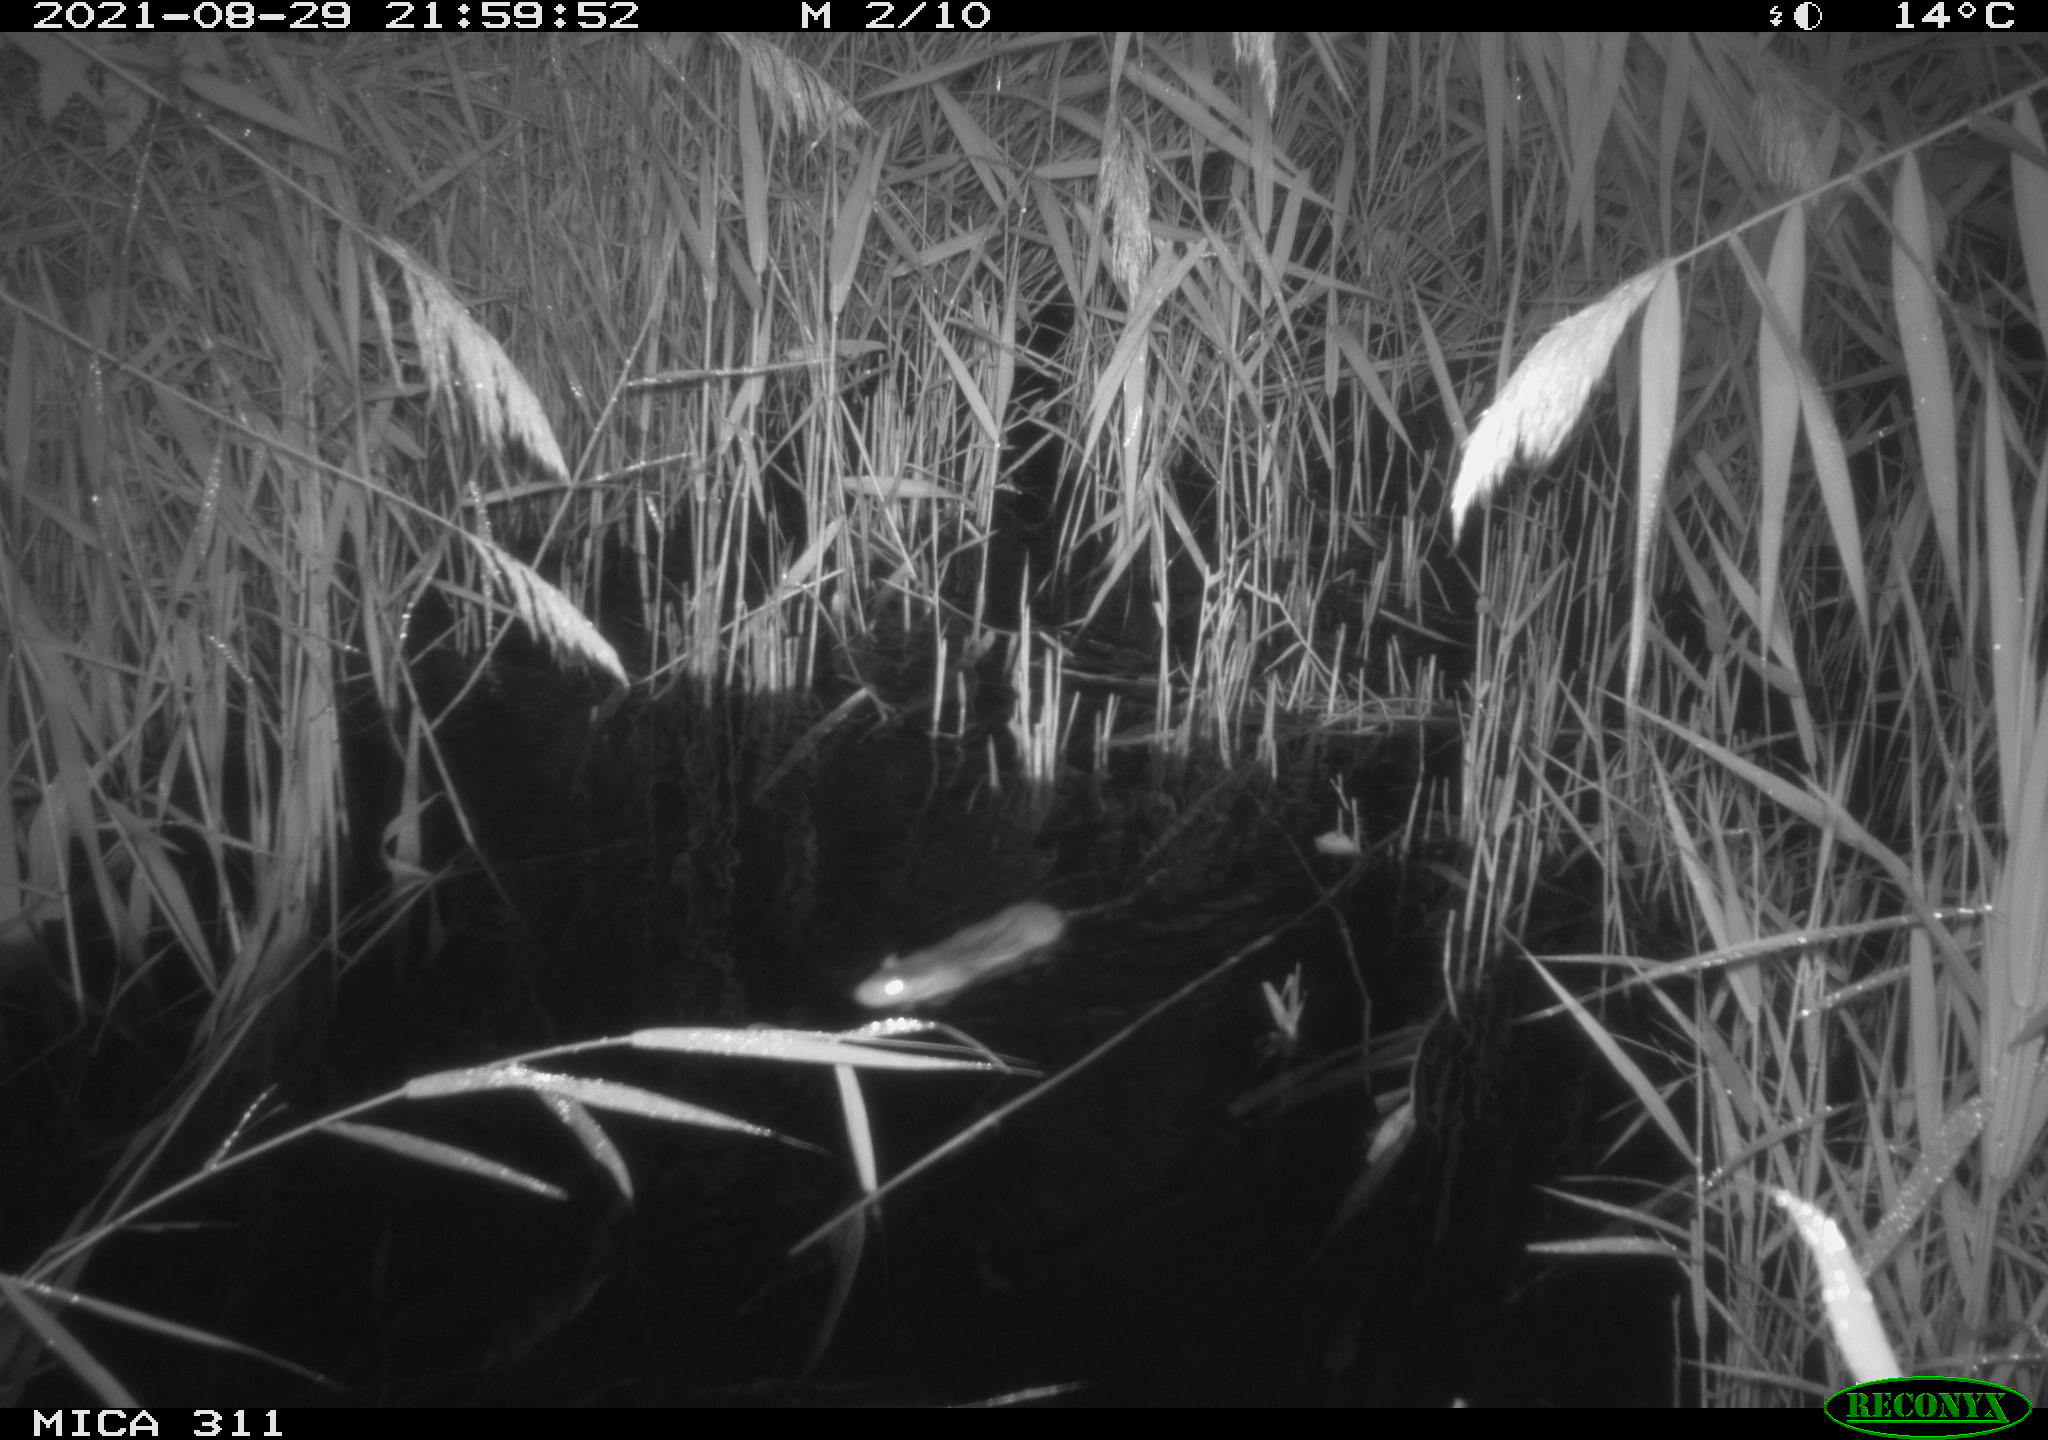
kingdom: Animalia
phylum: Chordata
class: Mammalia
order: Rodentia
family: Muridae
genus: Rattus
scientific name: Rattus norvegicus
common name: Brown rat
